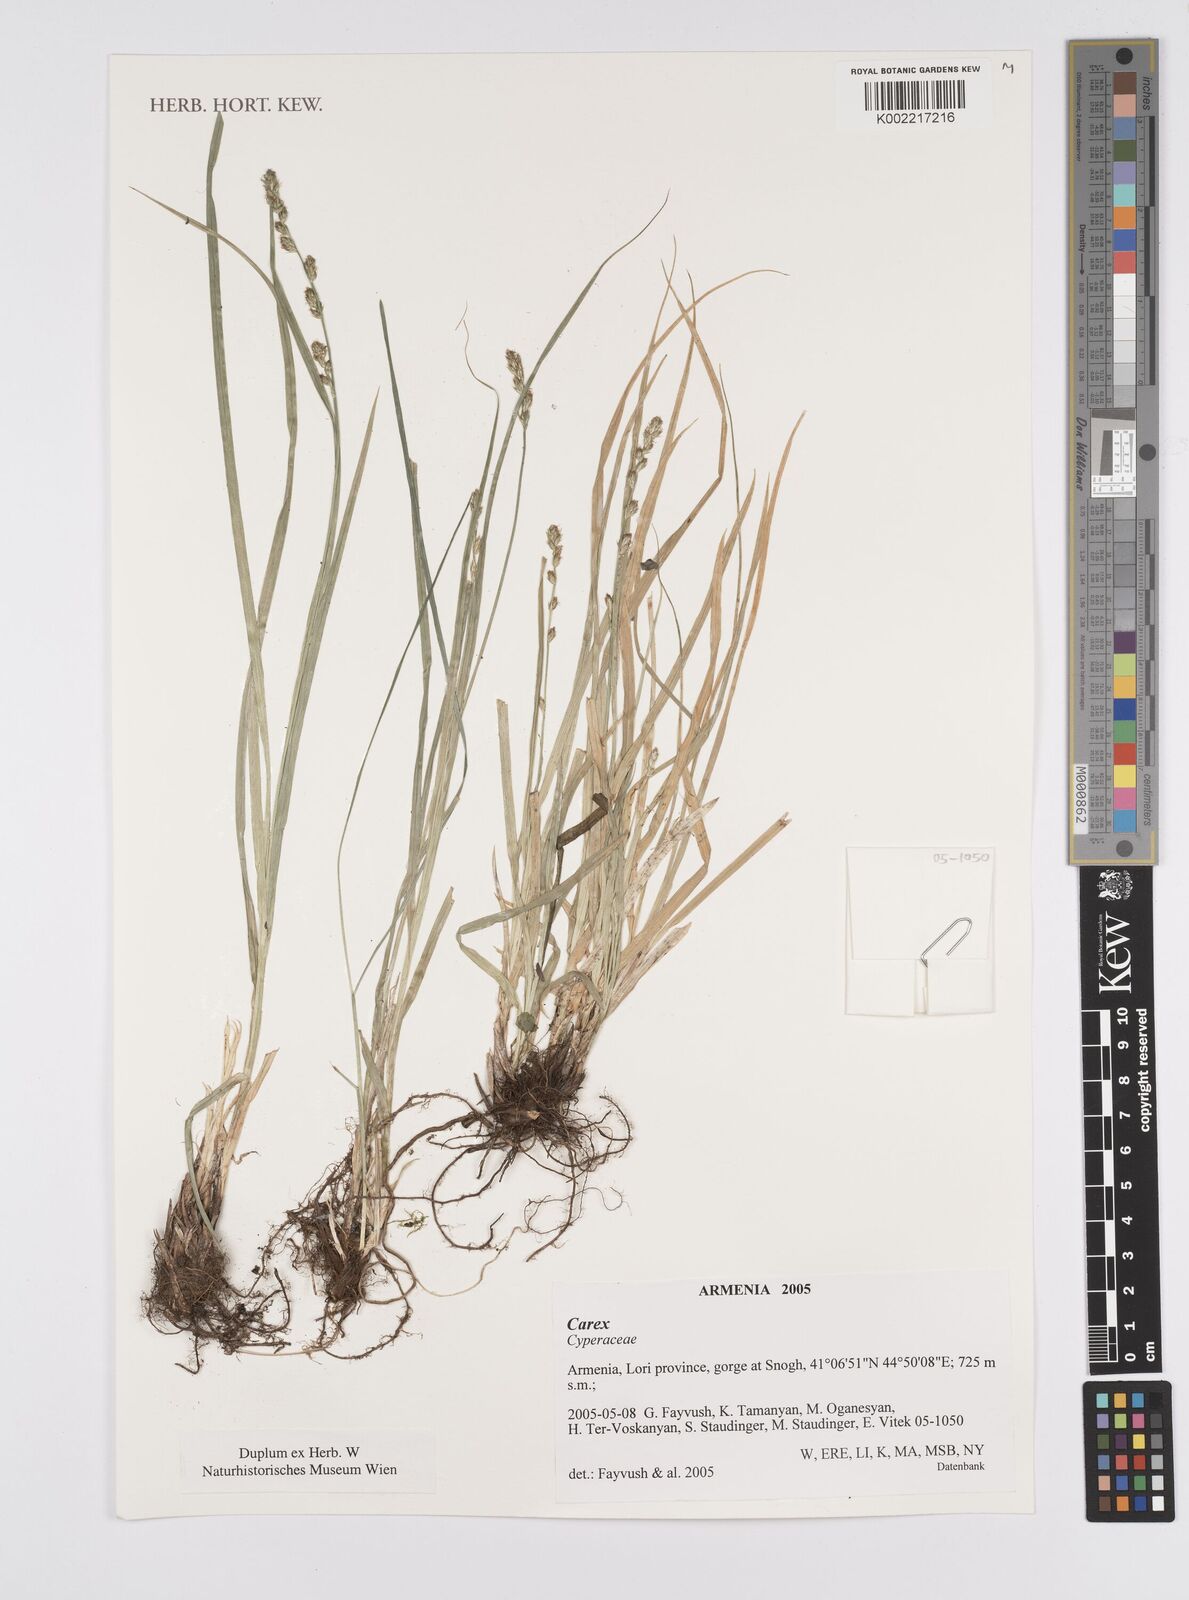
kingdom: Plantae
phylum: Tracheophyta
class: Liliopsida
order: Poales
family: Cyperaceae
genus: Carex
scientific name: Carex
